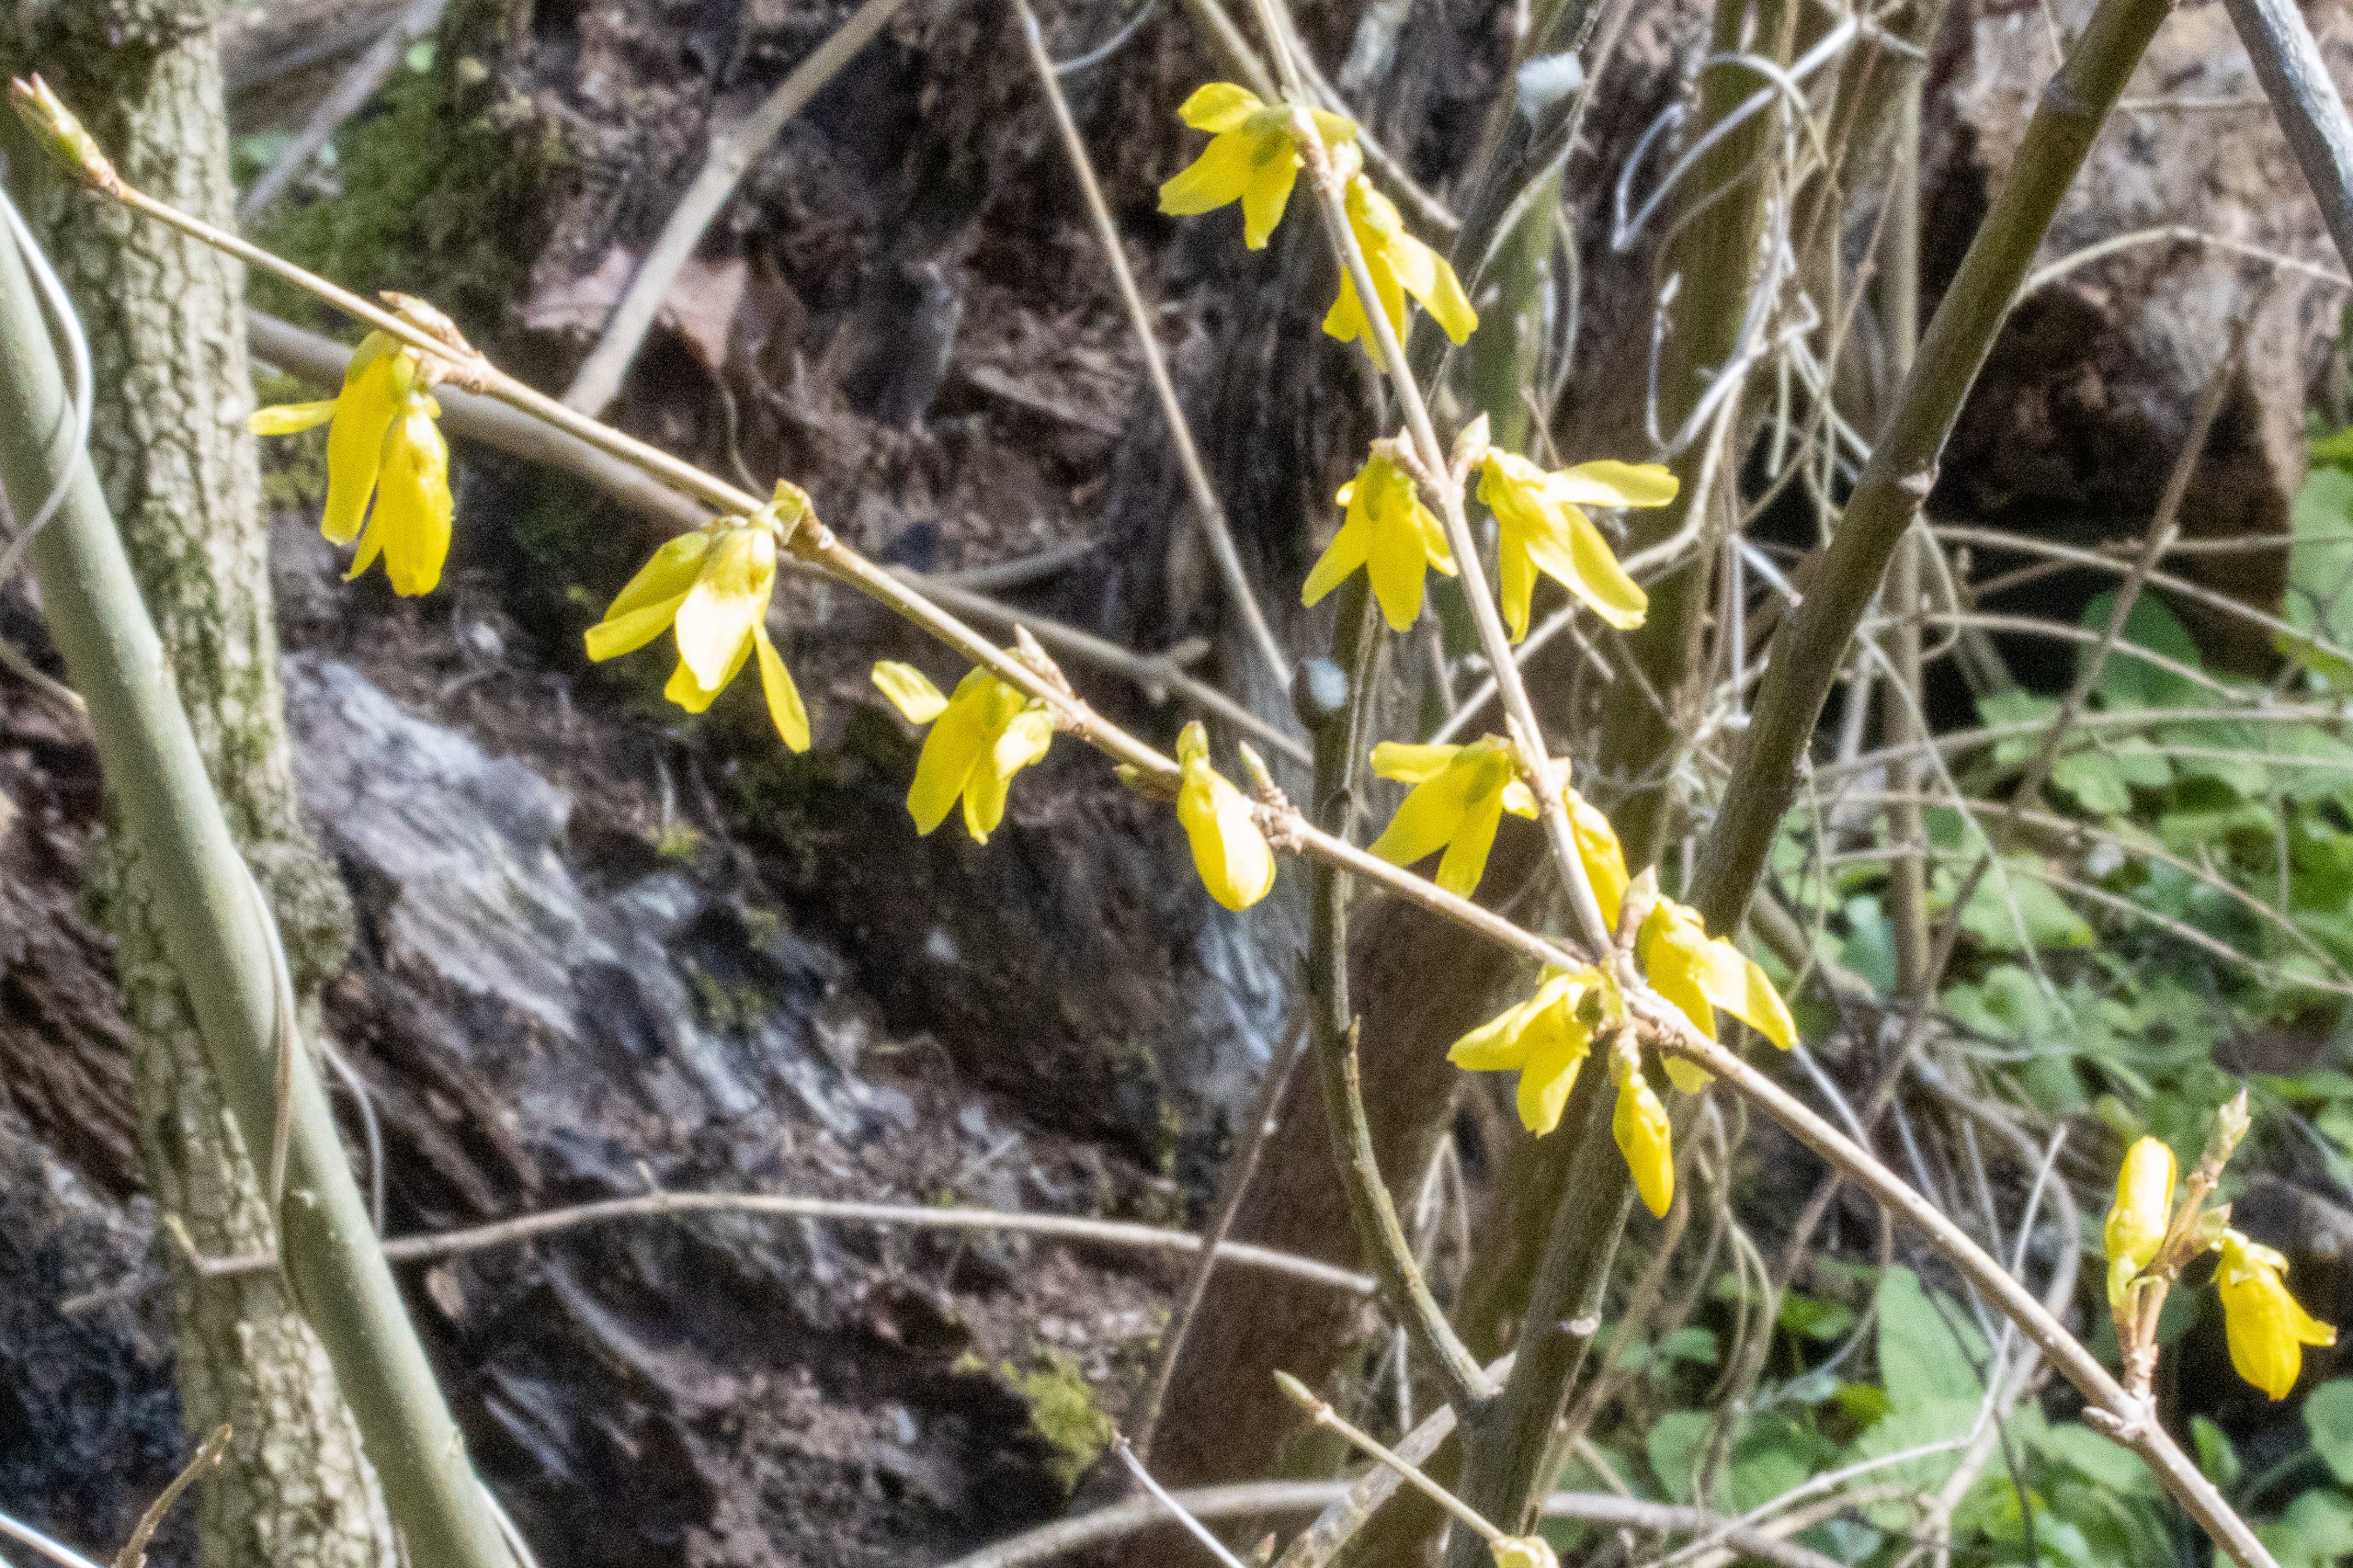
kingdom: Plantae
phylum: Tracheophyta
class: Magnoliopsida
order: Lamiales
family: Oleaceae
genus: Forsythia
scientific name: Forsythia intermedia
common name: Have-forsythia
